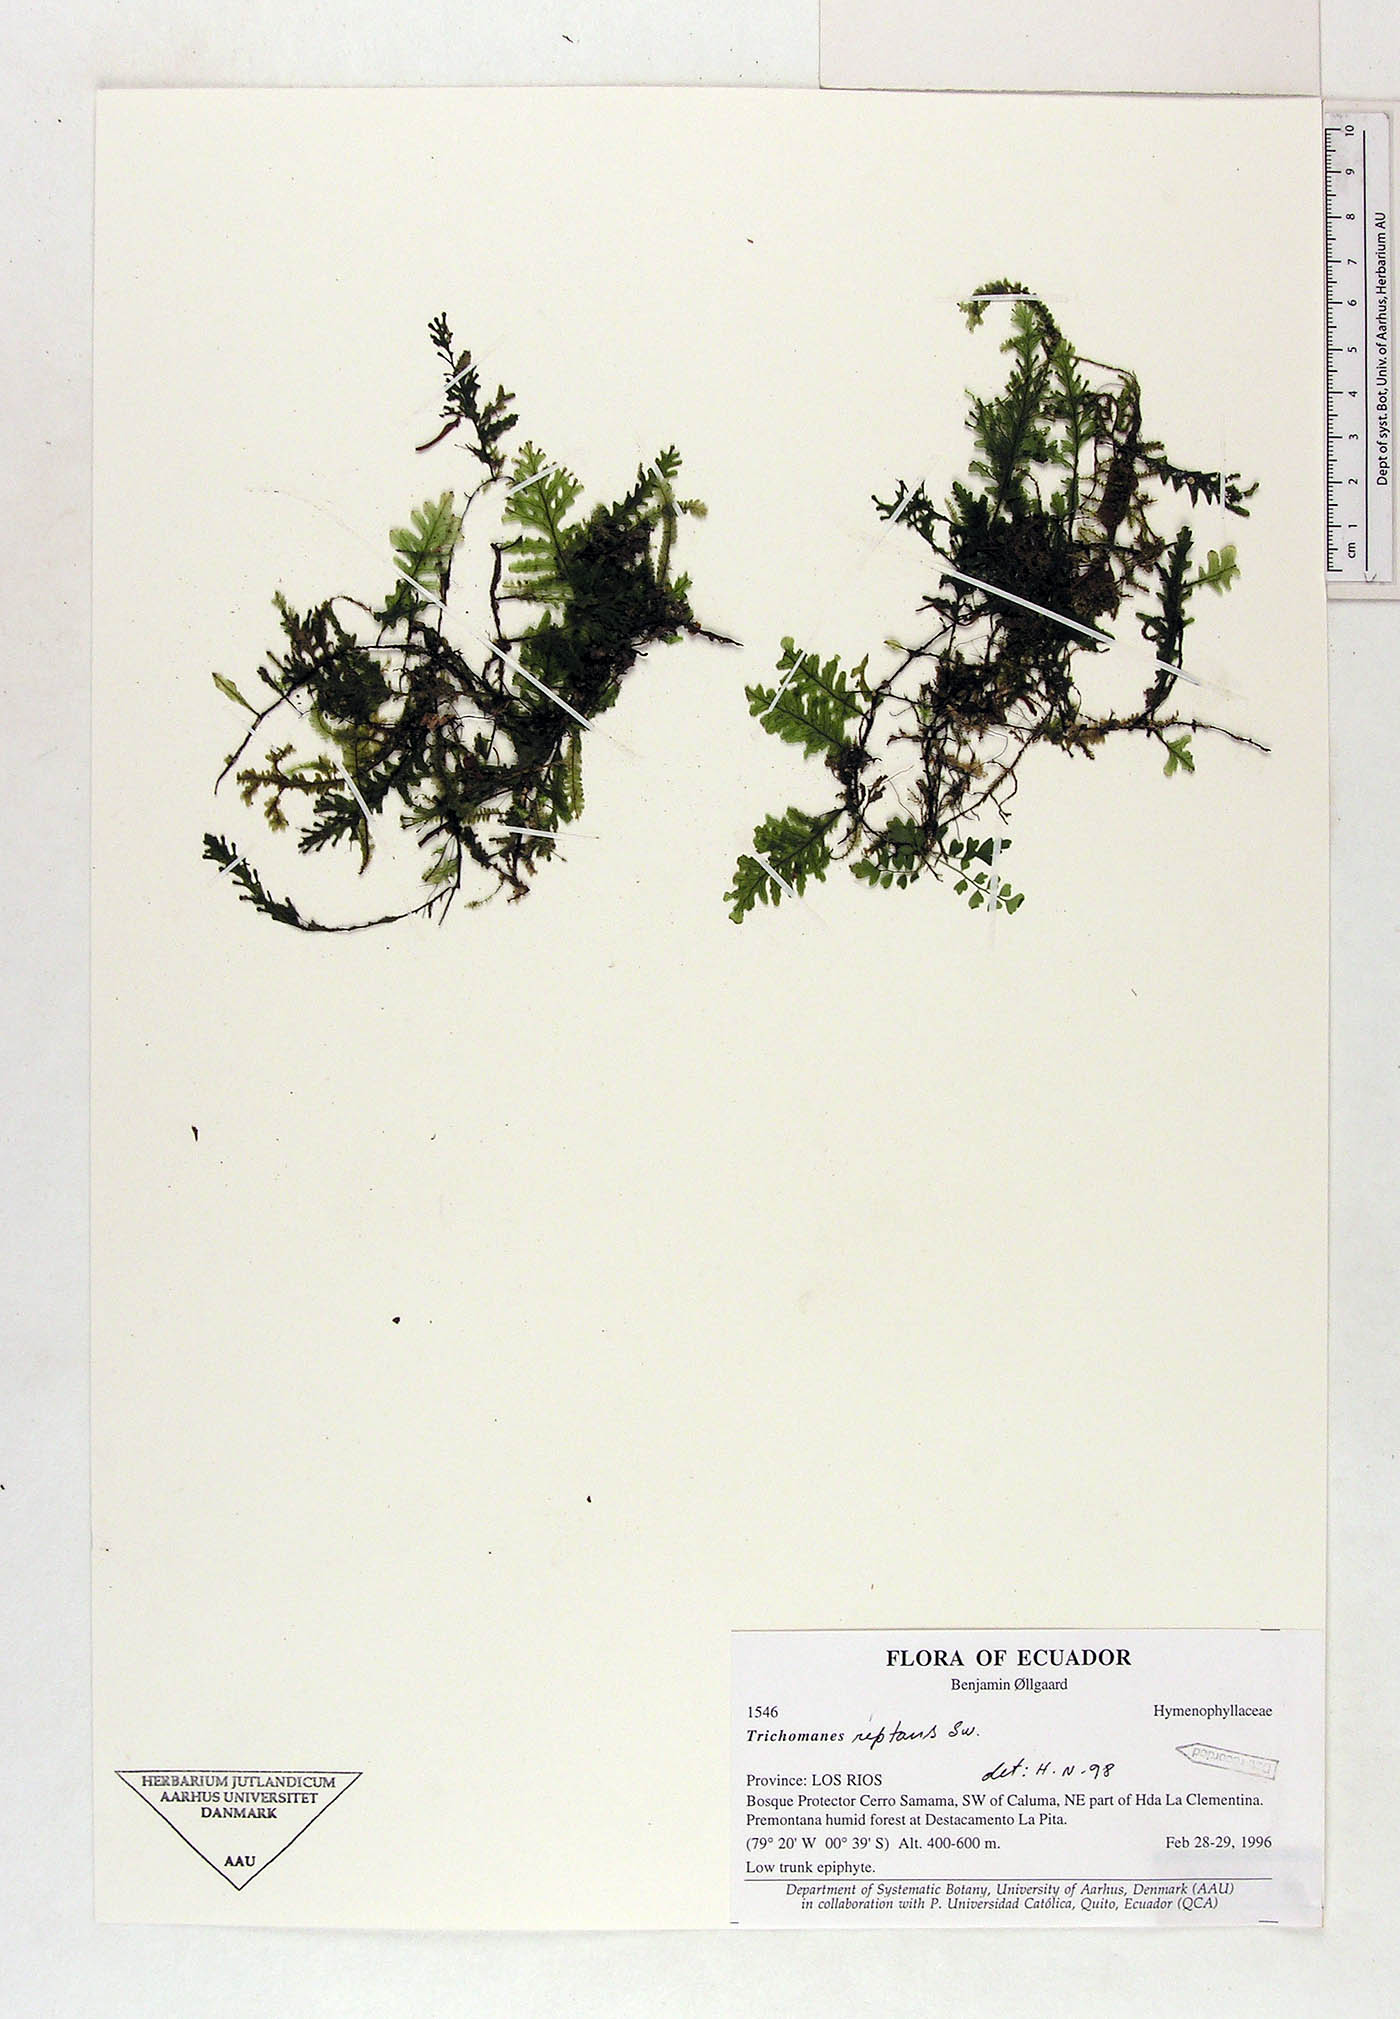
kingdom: Plantae
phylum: Tracheophyta
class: Polypodiopsida
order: Hymenophyllales
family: Hymenophyllaceae
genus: Didymoglossum
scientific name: Didymoglossum reptans
